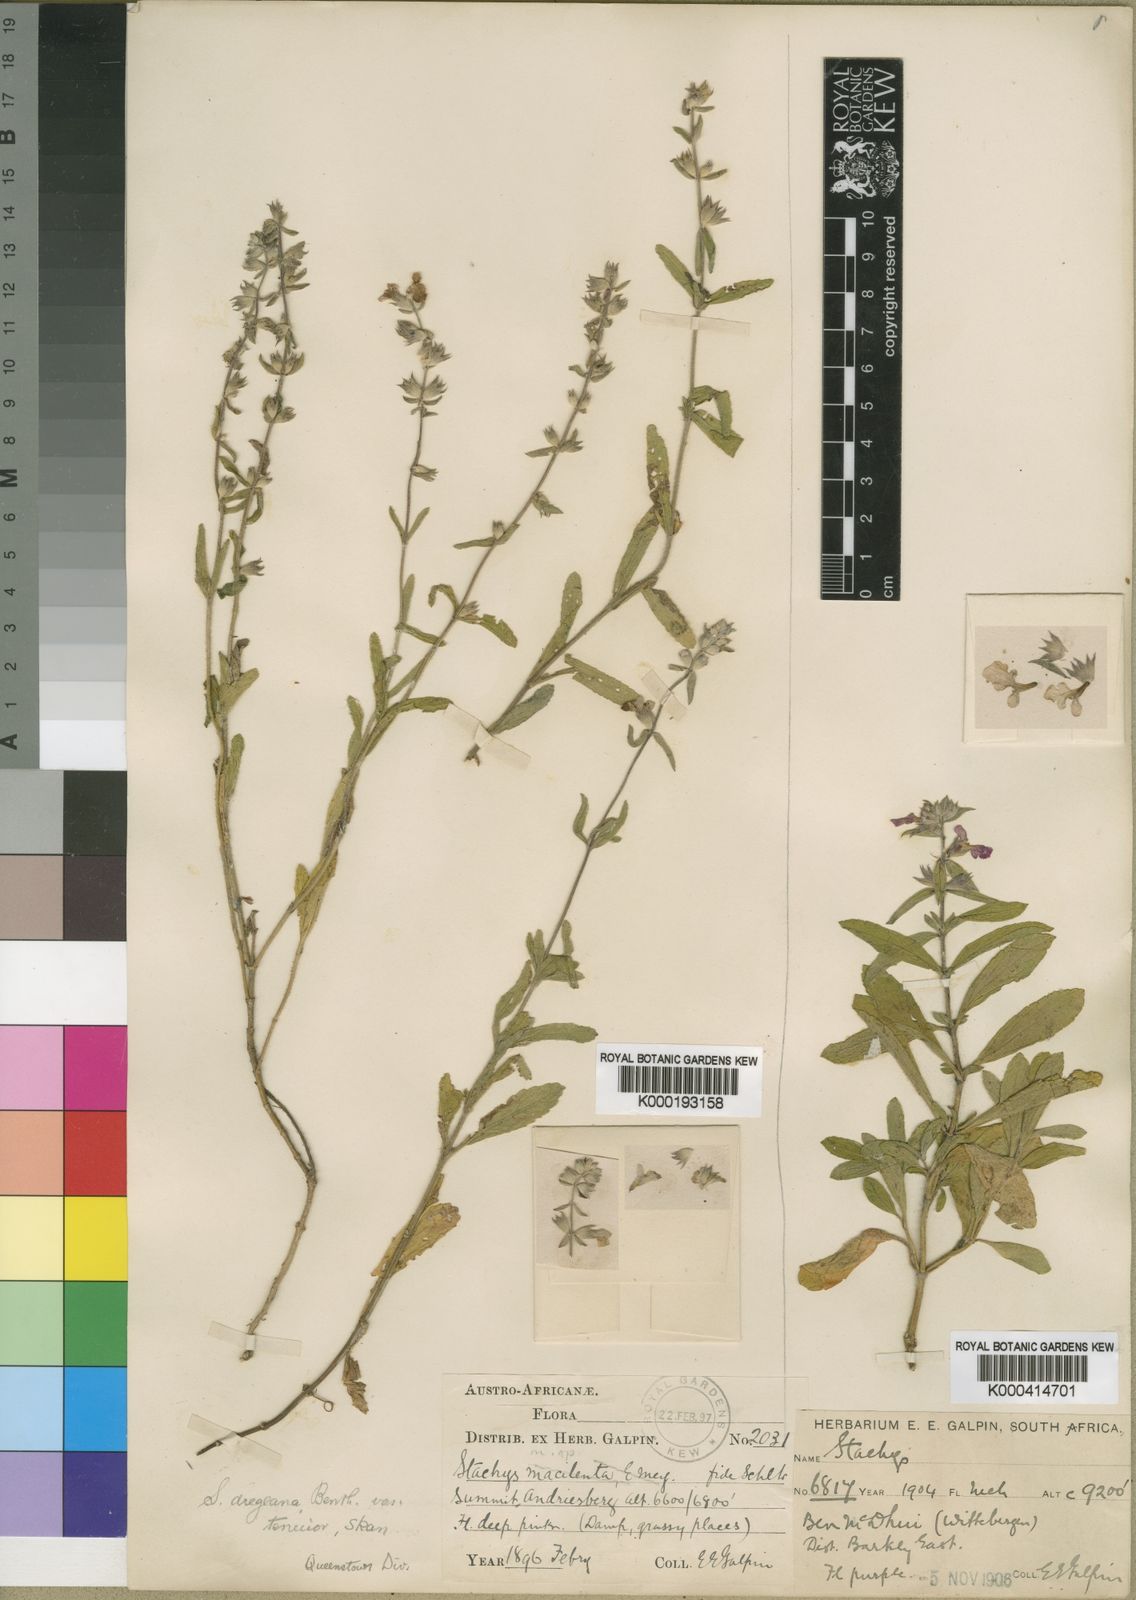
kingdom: Plantae
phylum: Tracheophyta
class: Magnoliopsida
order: Lamiales
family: Lamiaceae
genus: Stachys
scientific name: Stachys dregeana
